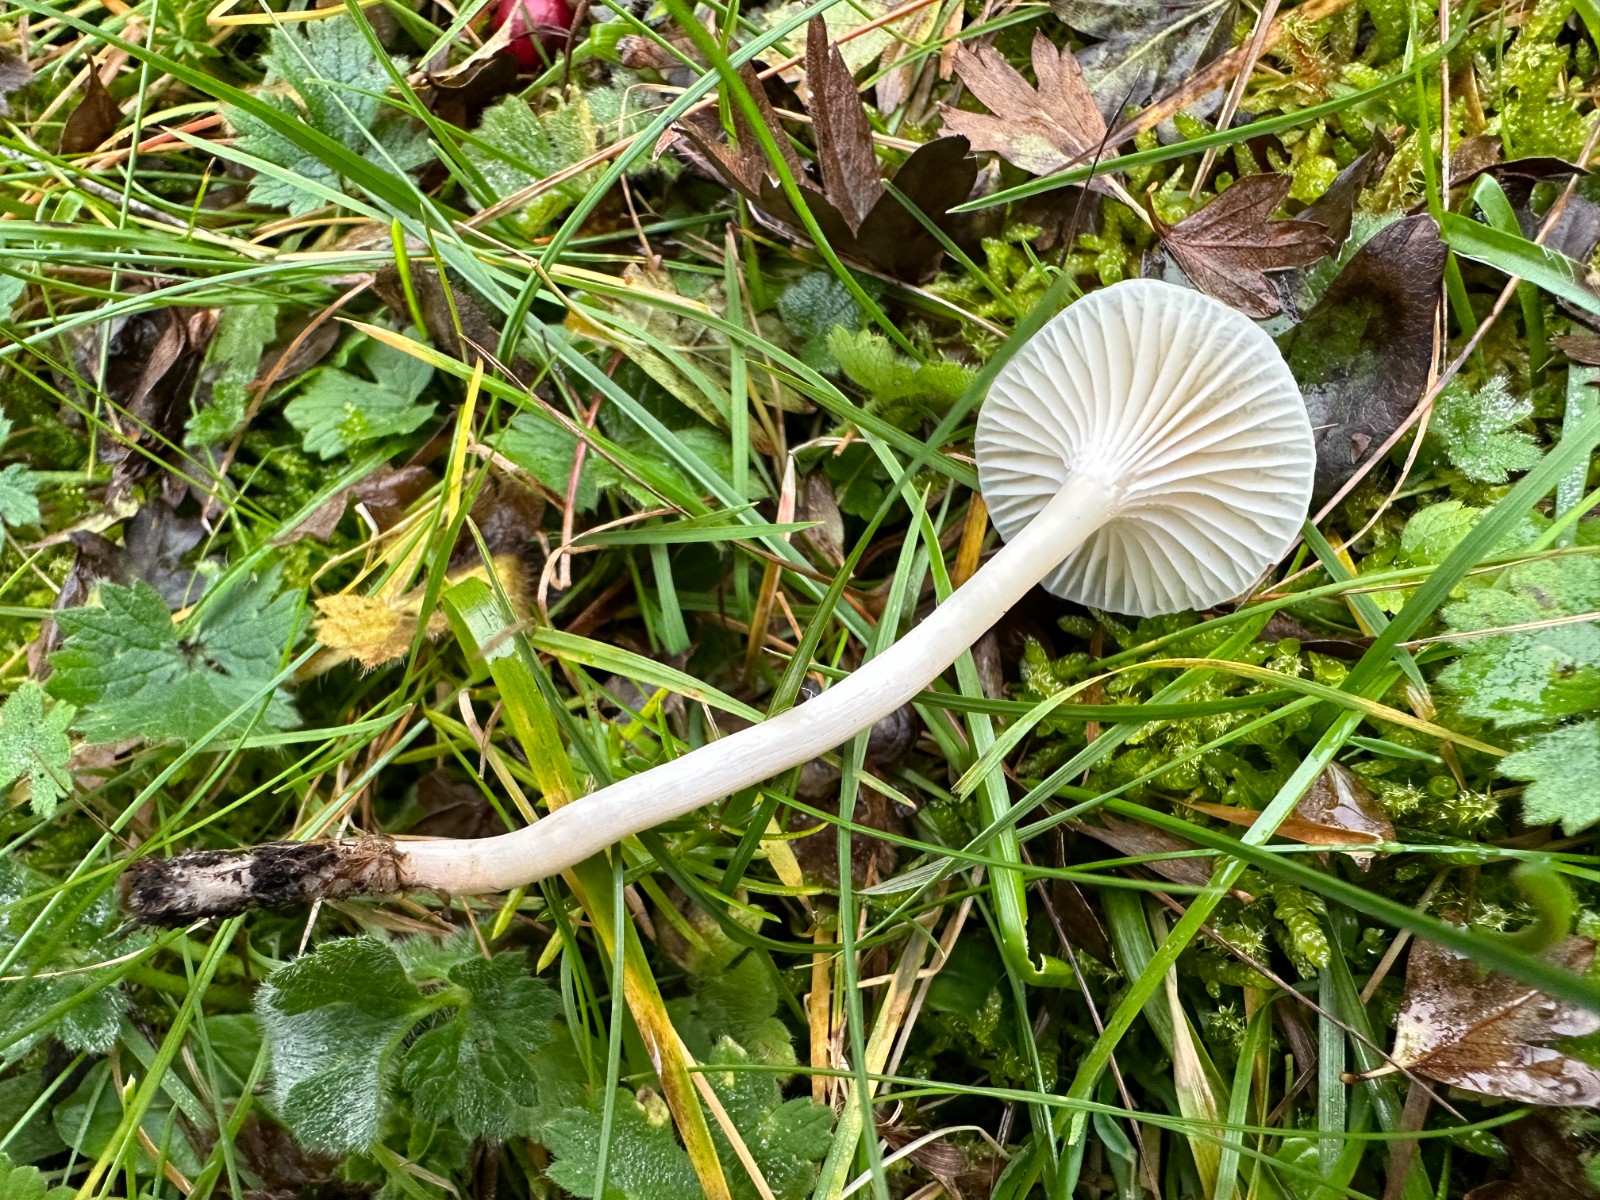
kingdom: Fungi
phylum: Basidiomycota
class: Agaricomycetes
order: Agaricales
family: Hygrophoraceae
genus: Cuphophyllus
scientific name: Cuphophyllus virgineus
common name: brunøjet vokshat
